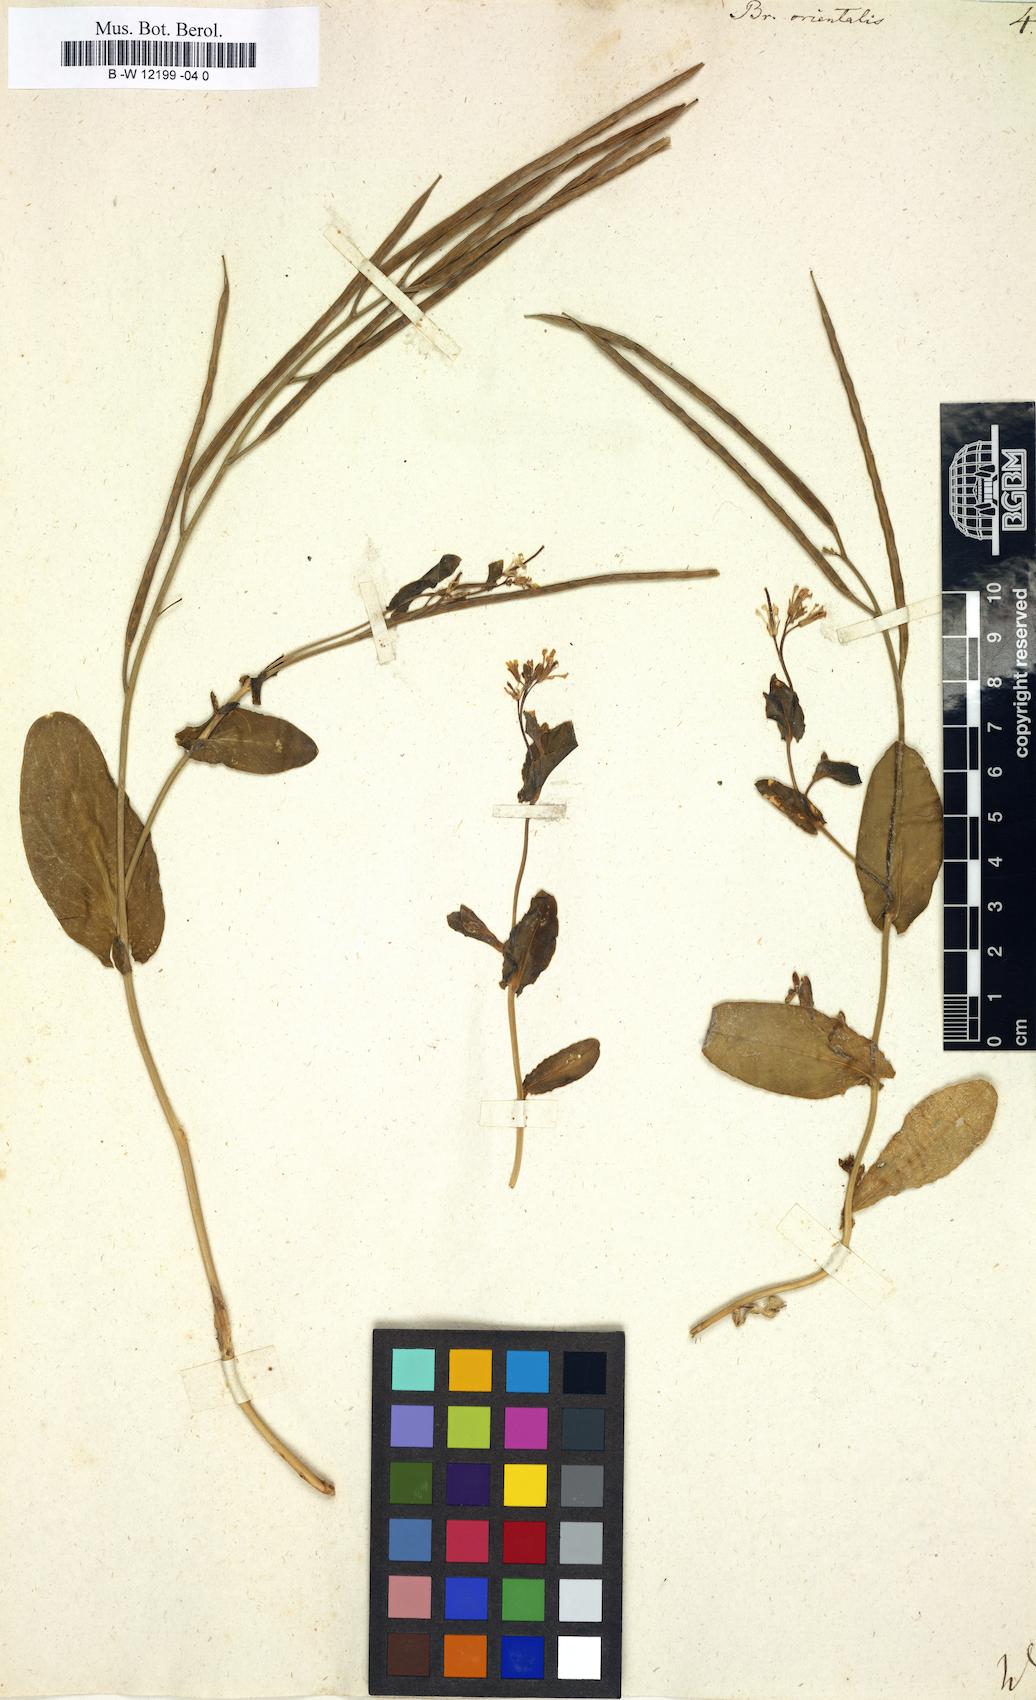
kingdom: Plantae
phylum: Tracheophyta
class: Magnoliopsida
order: Brassicales
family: Brassicaceae
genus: Conringia
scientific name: Conringia orientalis
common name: Hare's ear mustard
